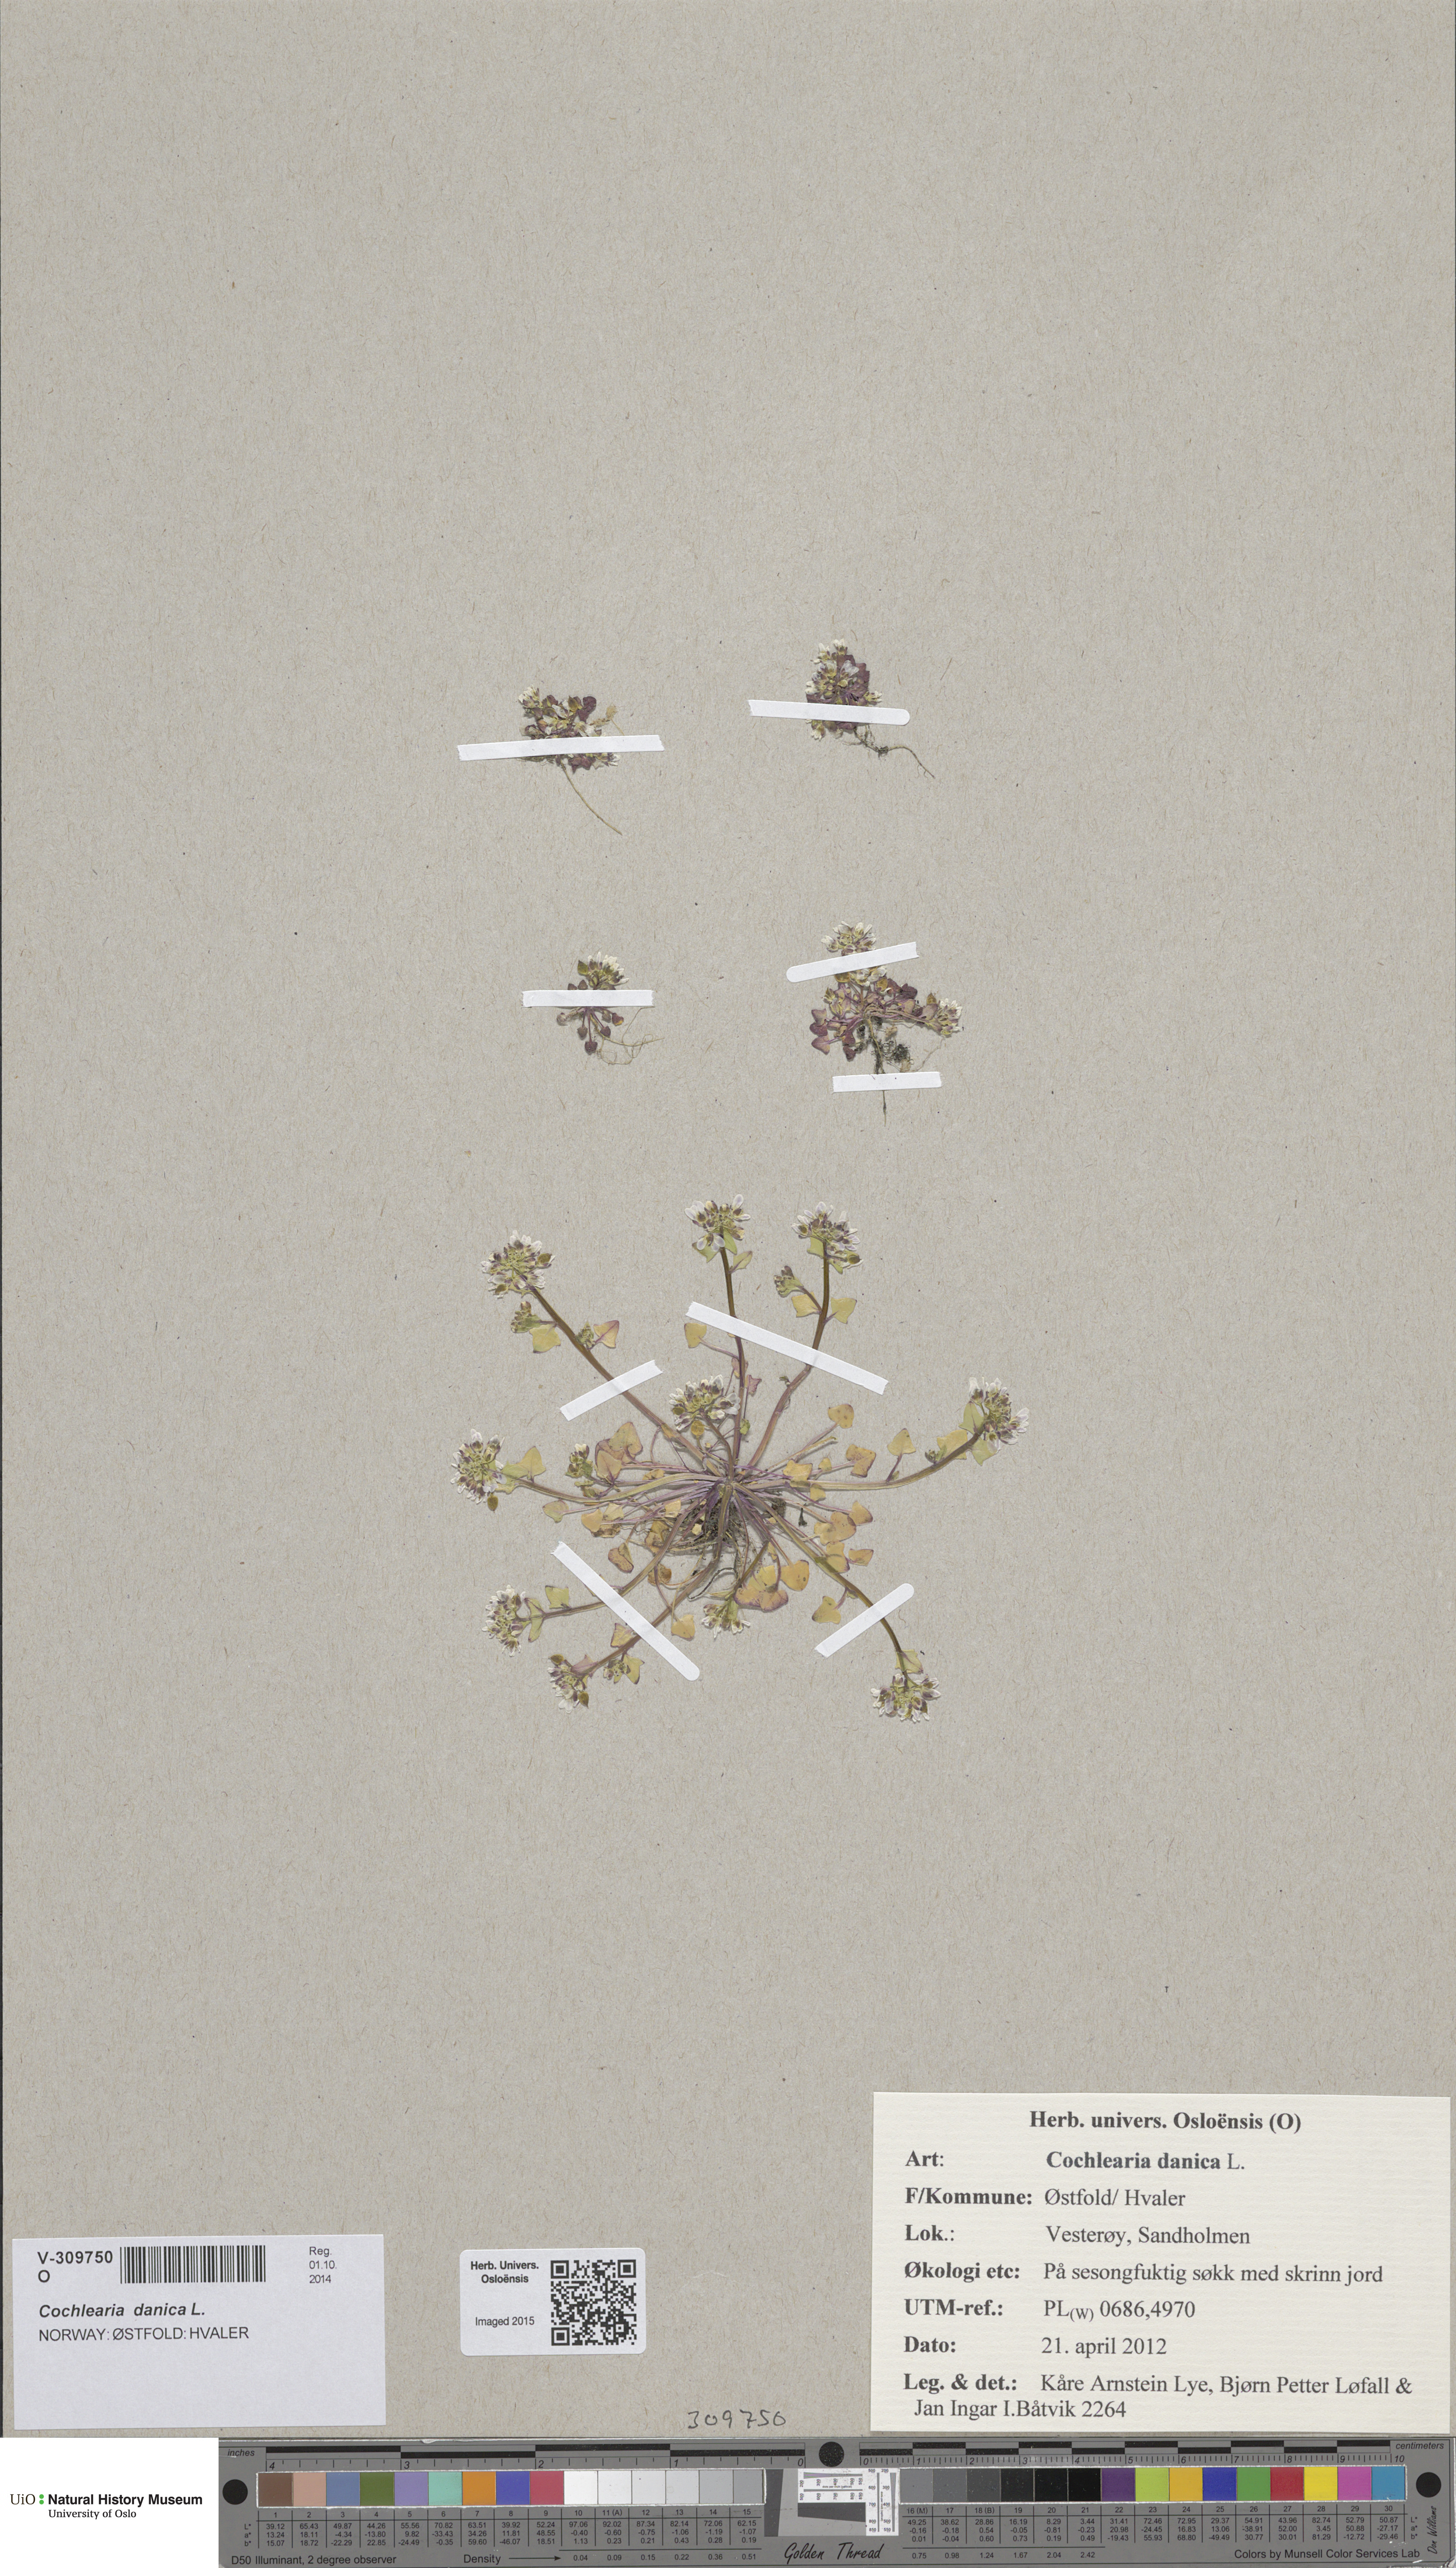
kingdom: Plantae
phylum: Tracheophyta
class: Magnoliopsida
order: Brassicales
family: Brassicaceae
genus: Cochlearia
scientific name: Cochlearia danica
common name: Early scurvygrass
